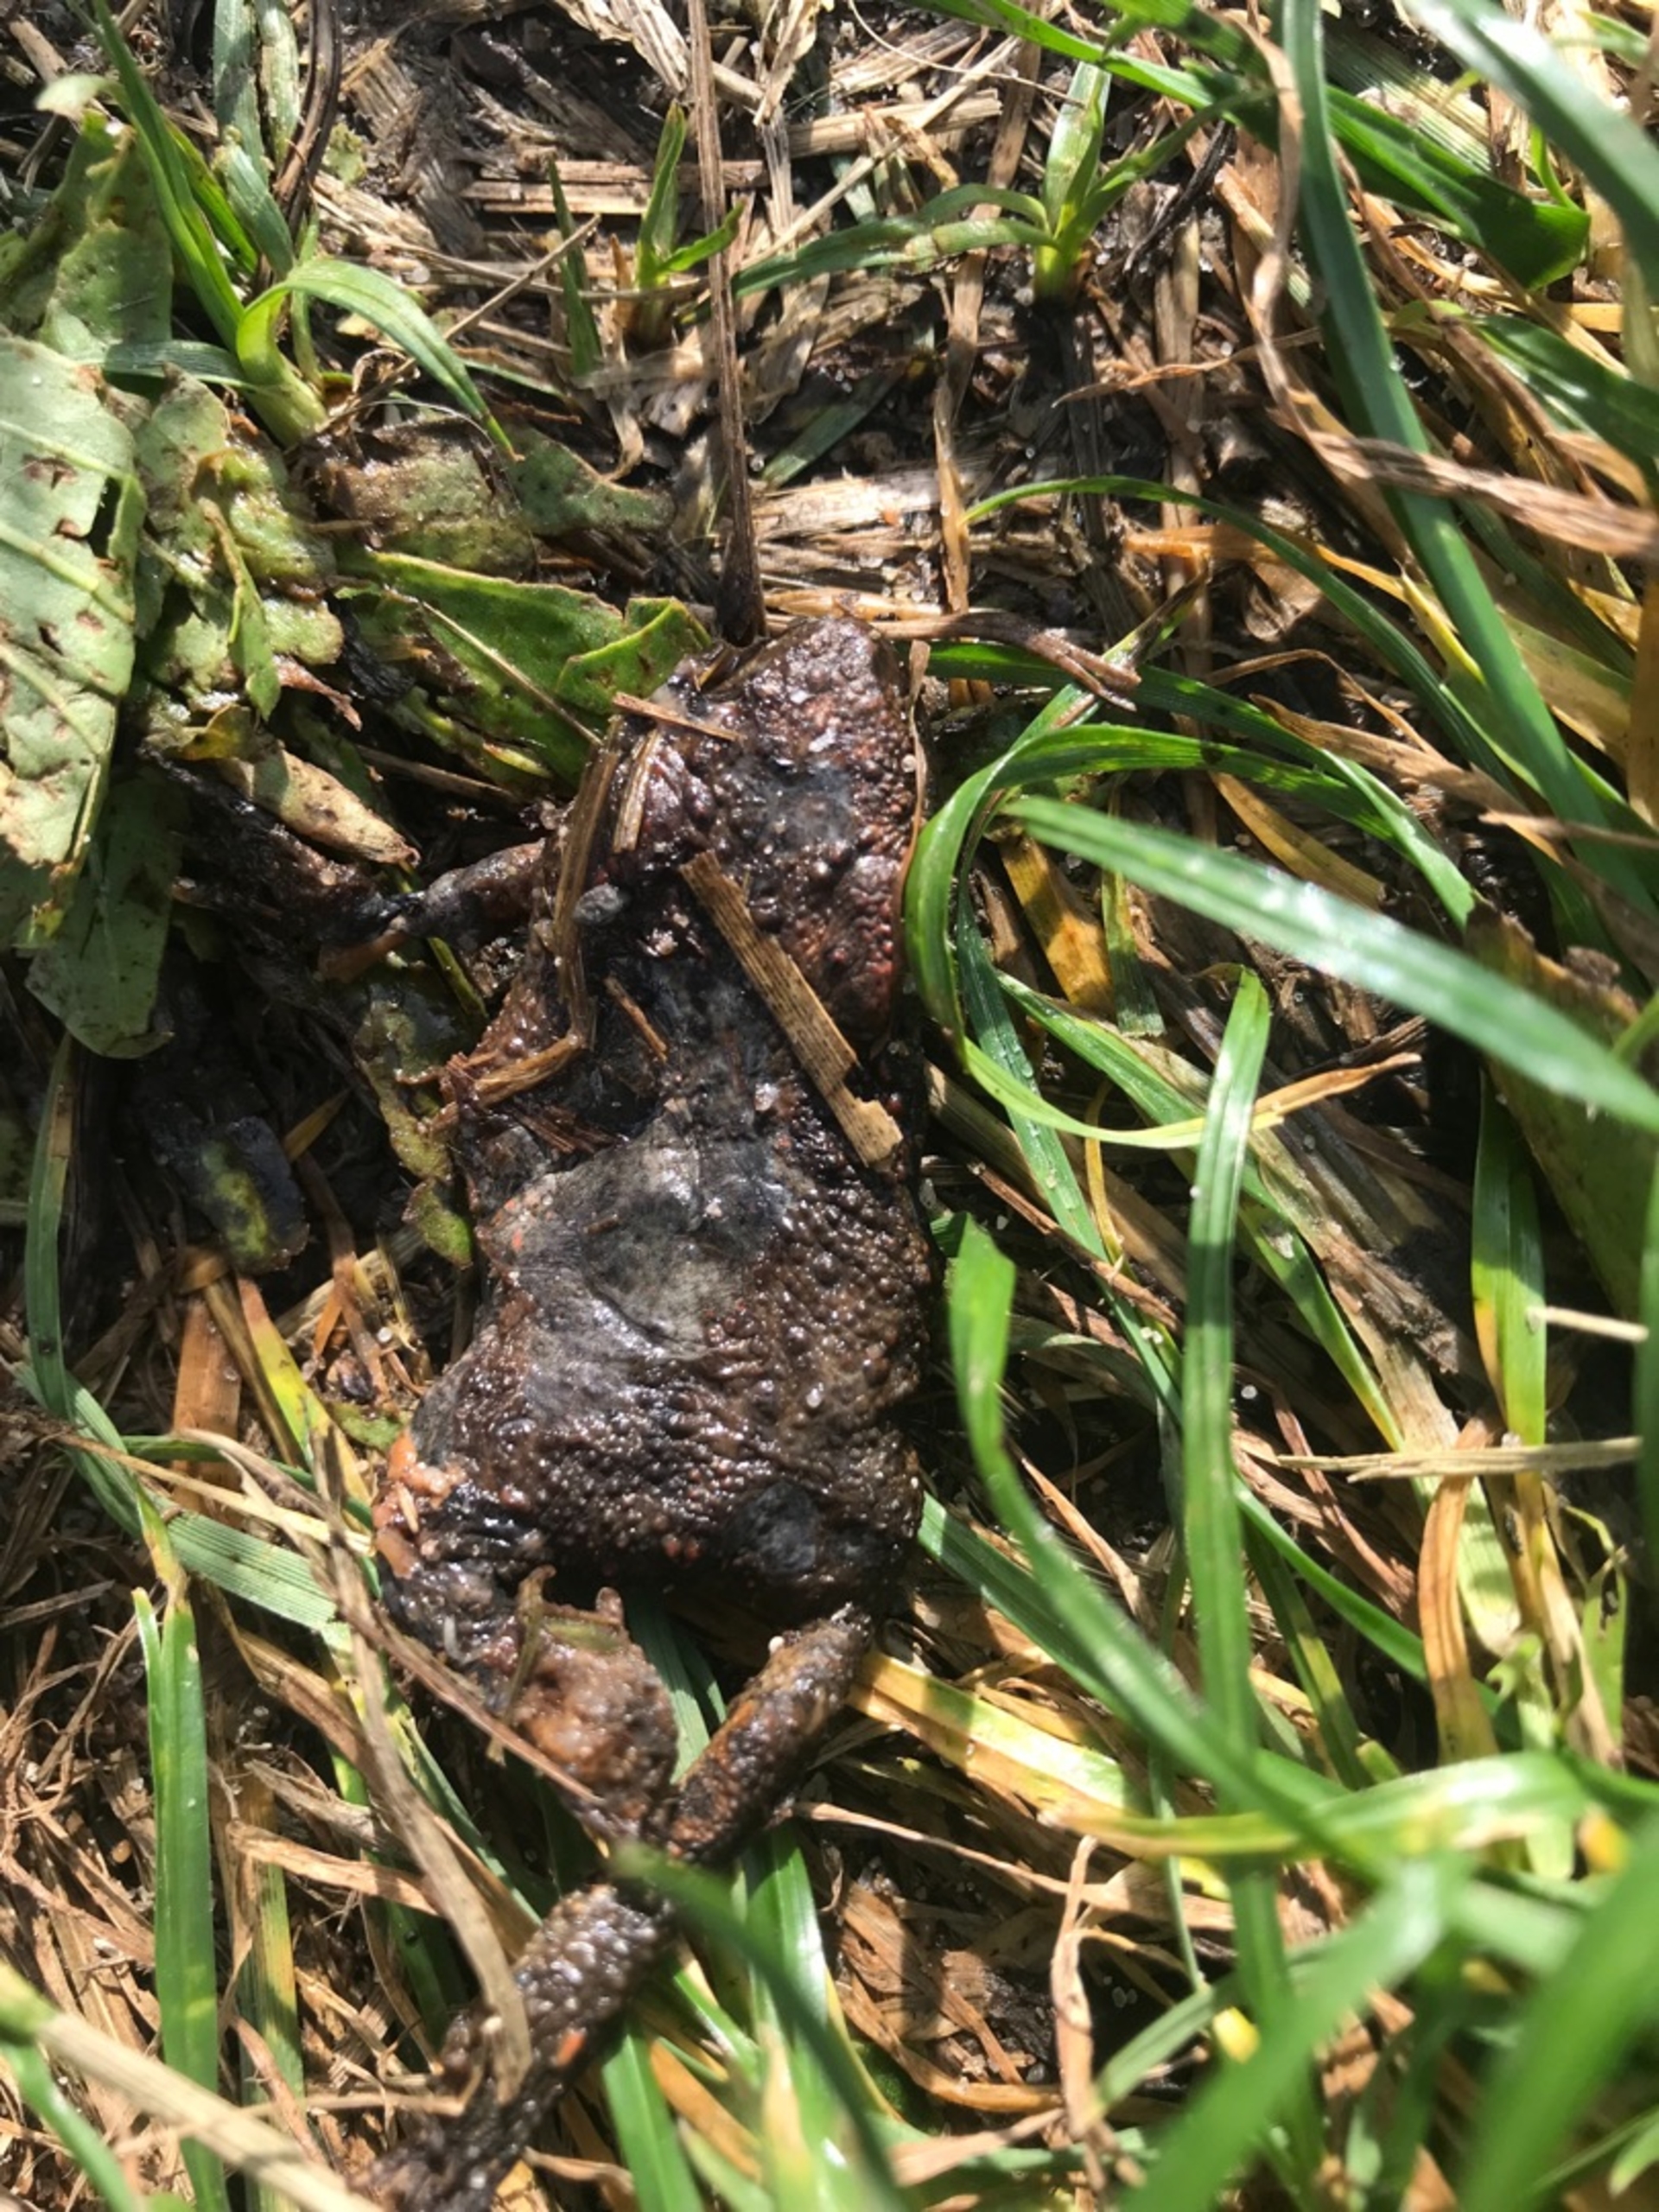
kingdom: Animalia
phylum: Chordata
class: Amphibia
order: Anura
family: Bufonidae
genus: Bufo
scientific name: Bufo bufo
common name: Skrubtudse
